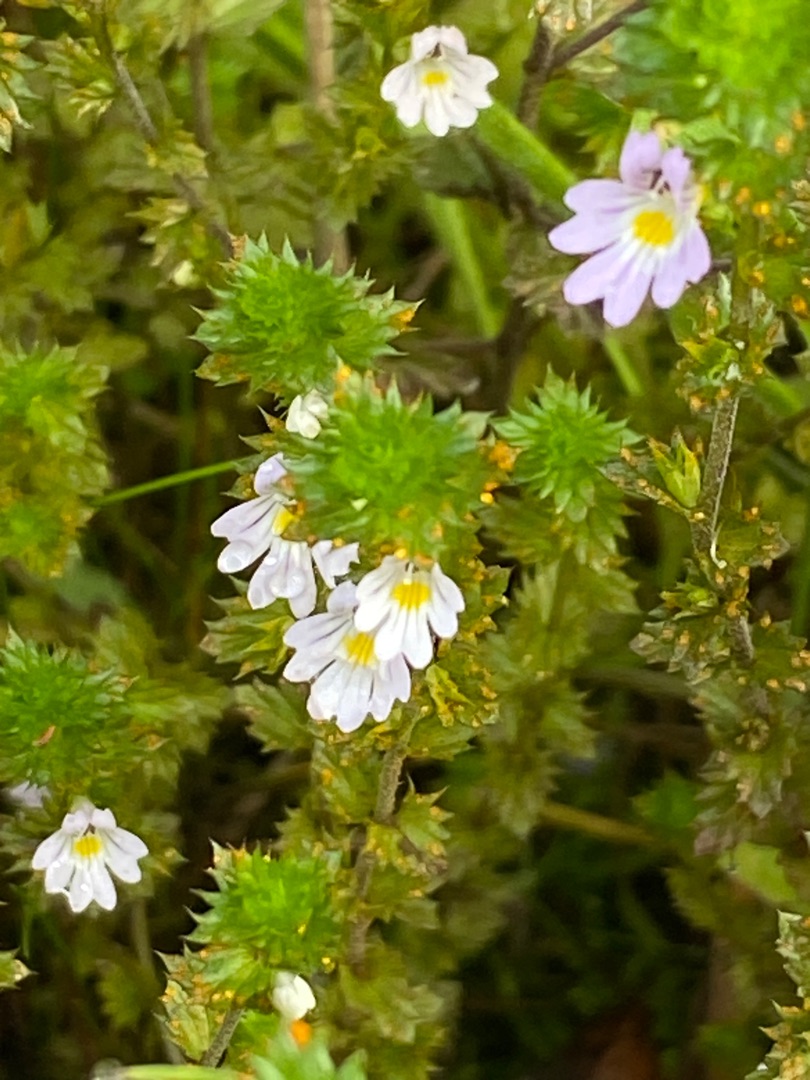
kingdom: Plantae
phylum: Tracheophyta
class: Magnoliopsida
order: Lamiales
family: Orobanchaceae
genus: Euphrasia
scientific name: Euphrasia stricta
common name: Spids øjentrøst
